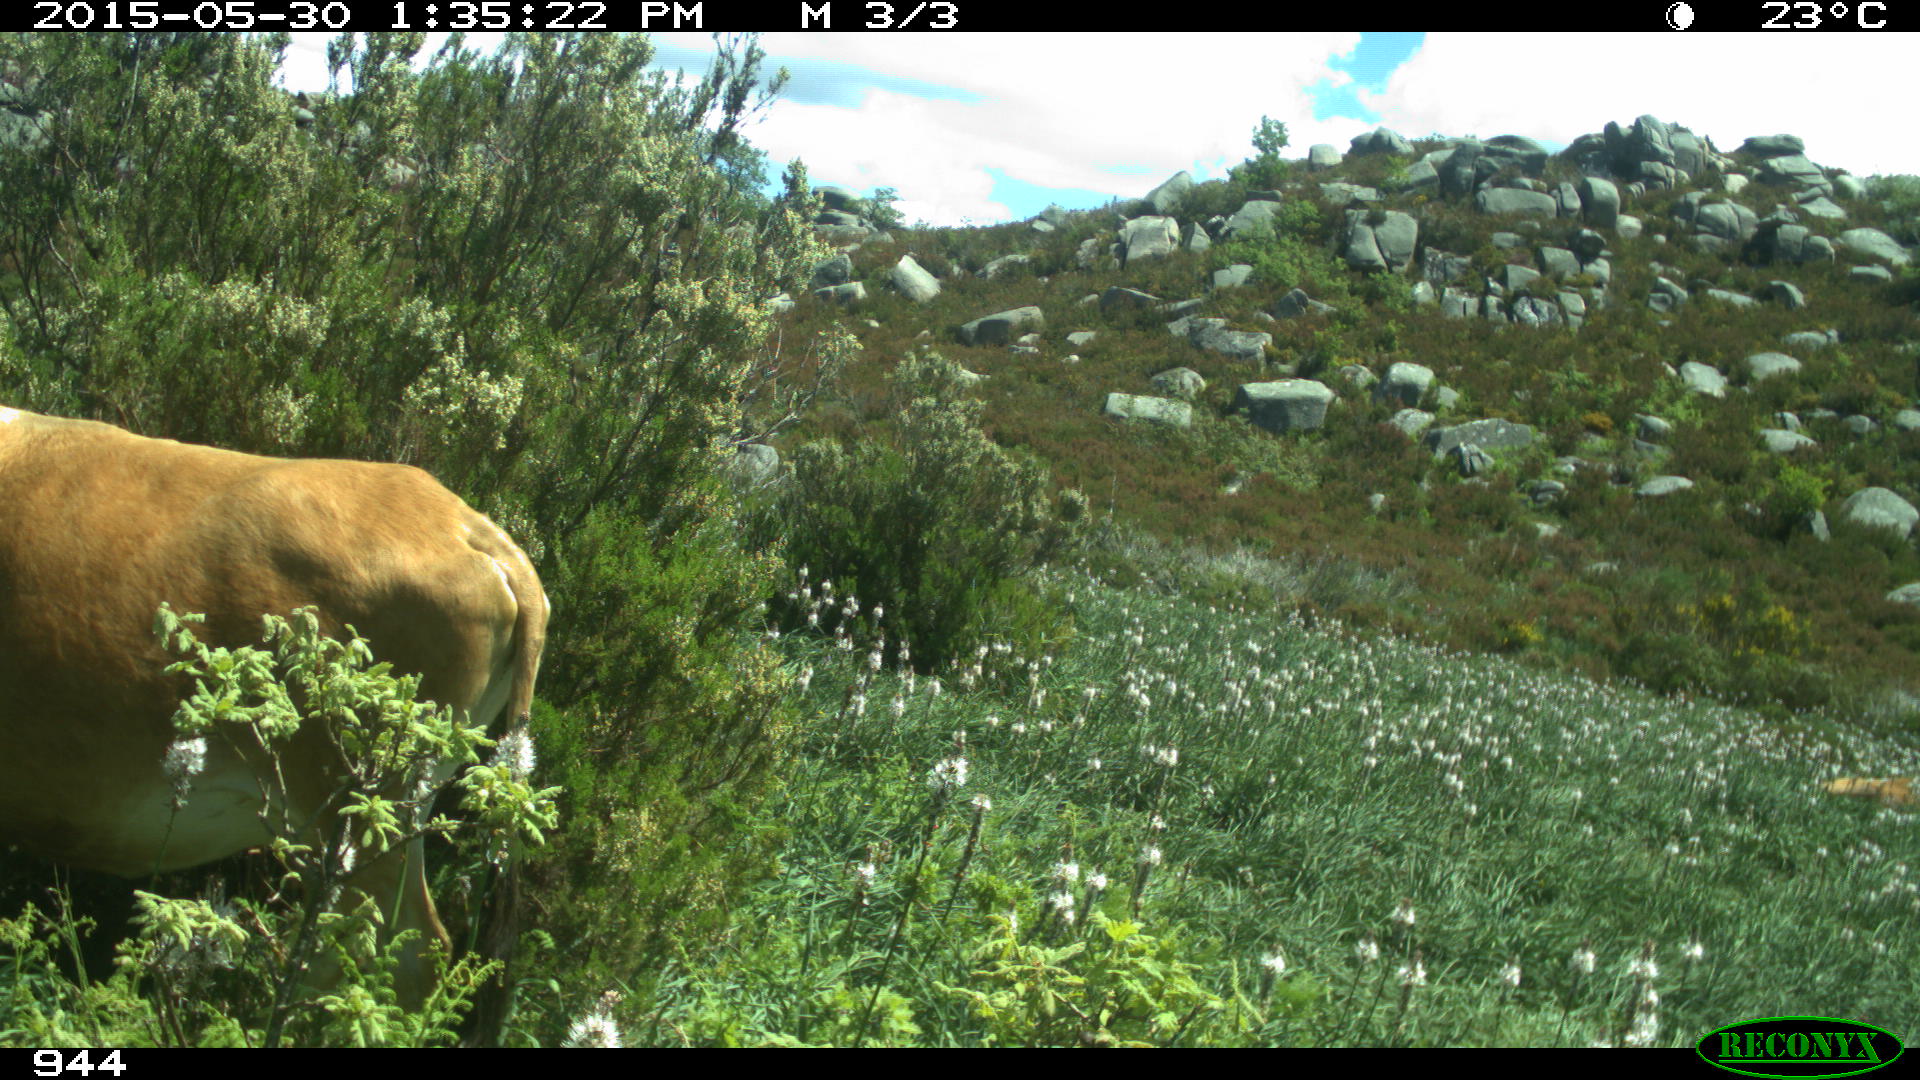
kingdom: Animalia
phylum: Chordata
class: Mammalia
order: Artiodactyla
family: Bovidae
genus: Bos
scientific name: Bos taurus
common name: Domesticated cattle
